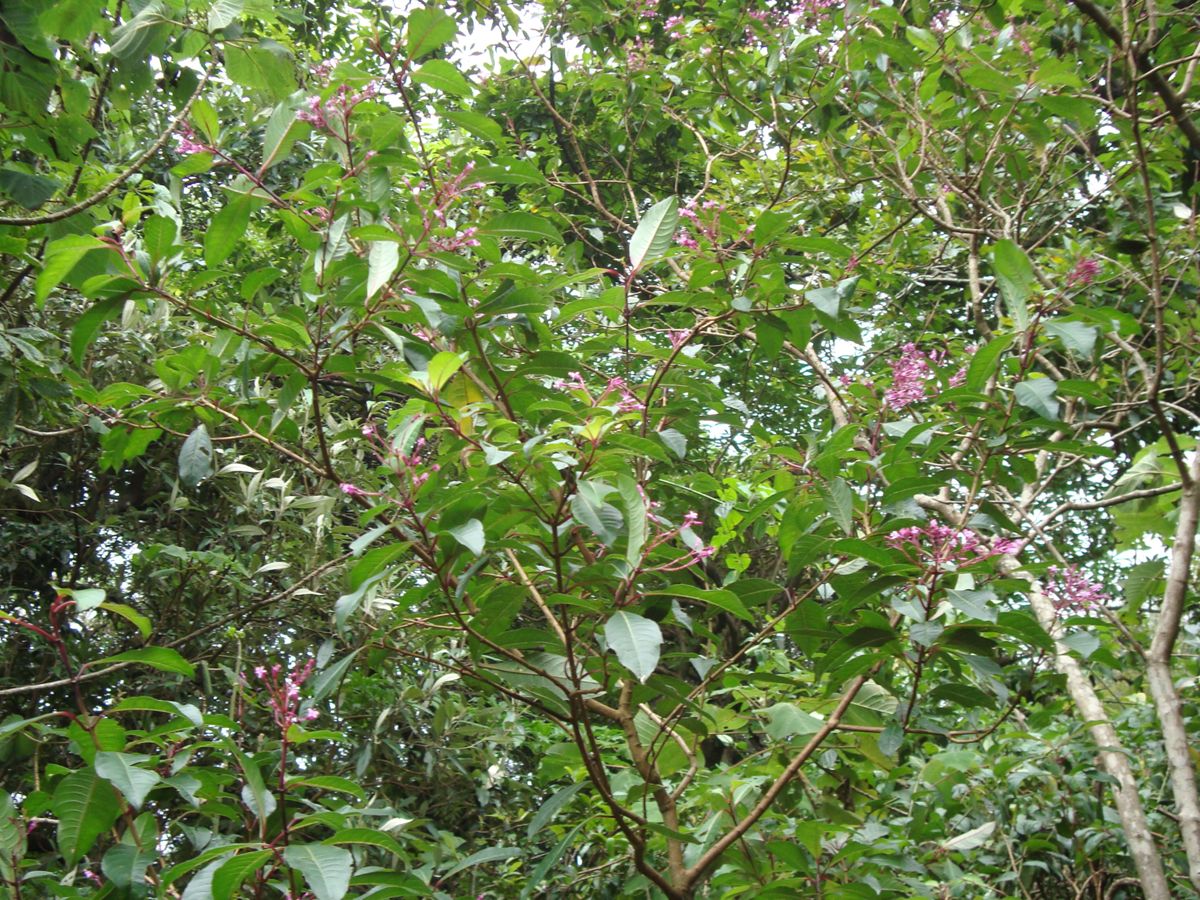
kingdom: Plantae
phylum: Tracheophyta
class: Magnoliopsida
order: Myrtales
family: Onagraceae
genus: Fuchsia
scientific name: Fuchsia paniculata
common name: Shrubby fuchsia
